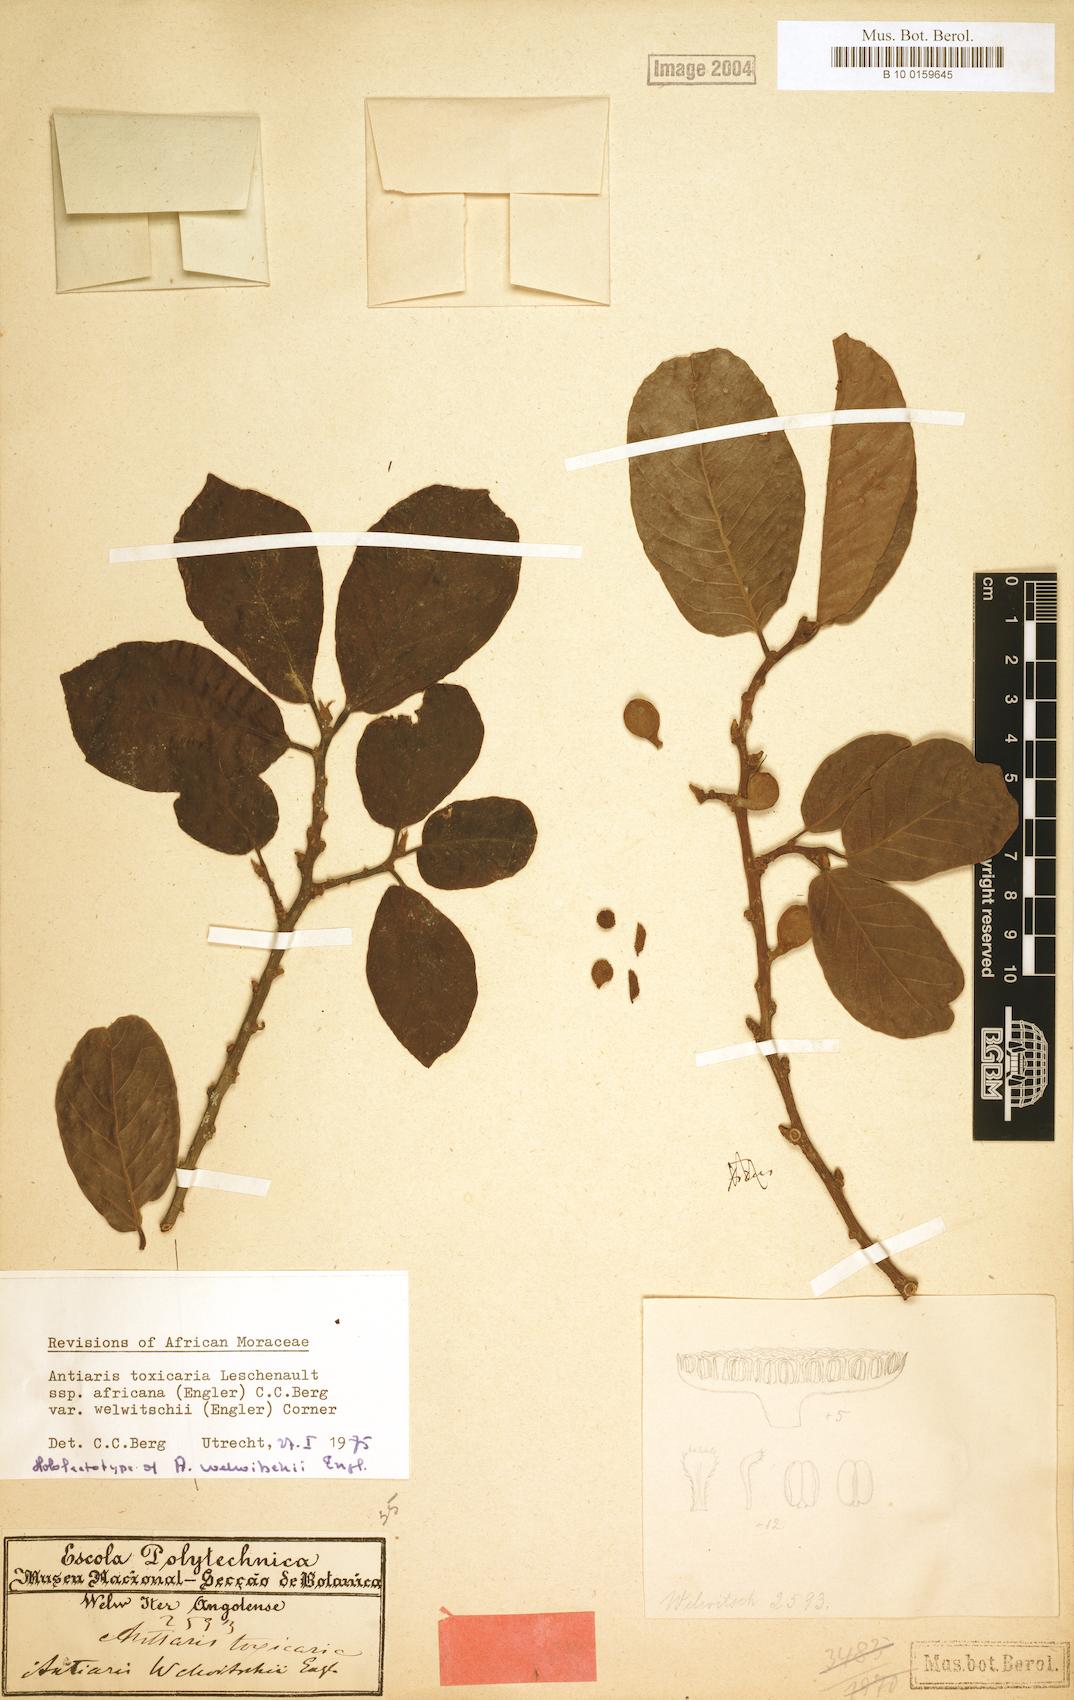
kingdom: Plantae
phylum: Tracheophyta
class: Magnoliopsida
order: Rosales
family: Moraceae
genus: Antiaris
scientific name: Antiaris toxicaria
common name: Sackingtree
